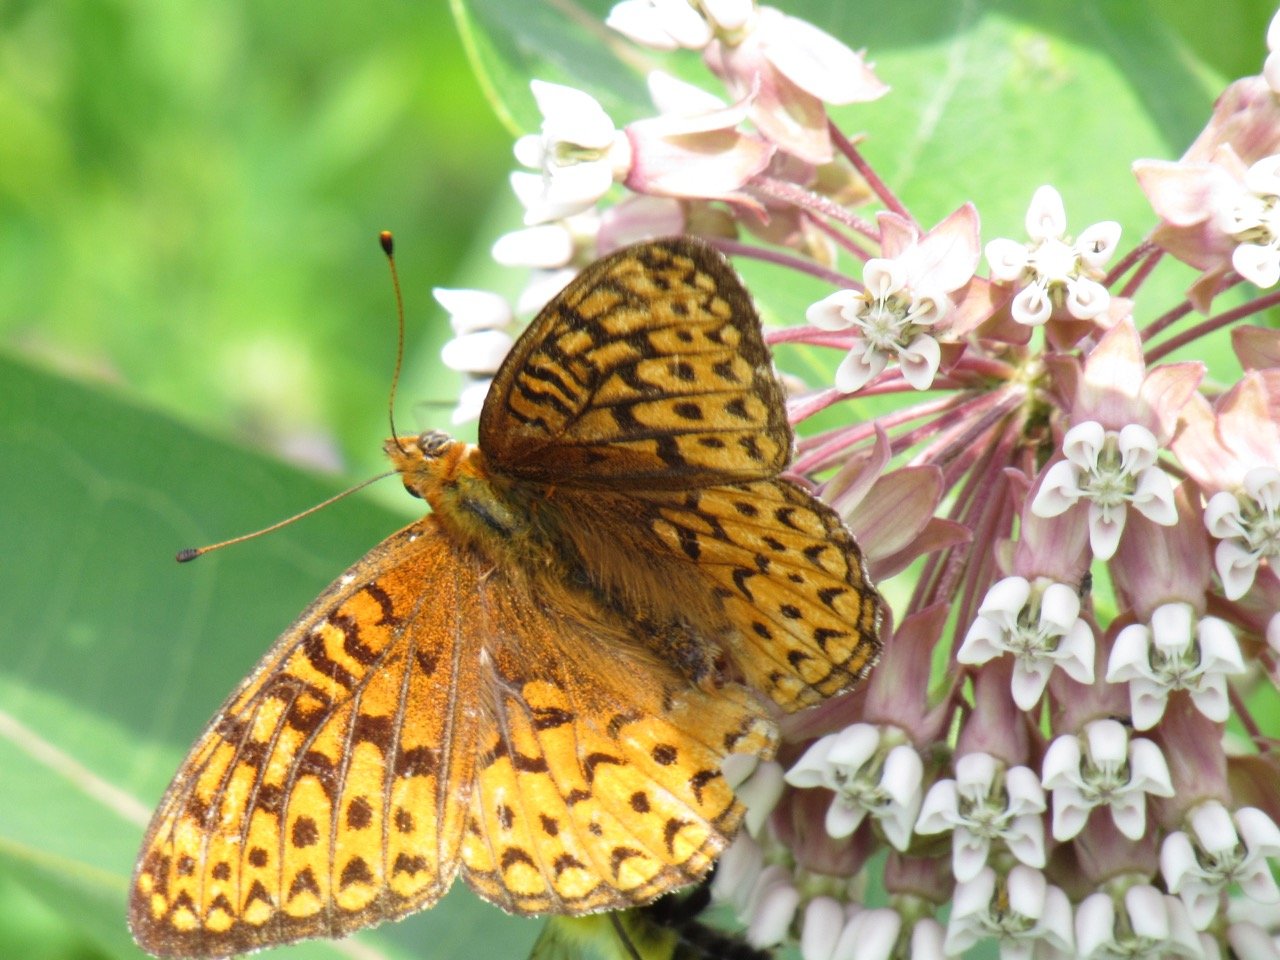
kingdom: Animalia
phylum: Arthropoda
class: Insecta
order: Lepidoptera
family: Nymphalidae
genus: Speyeria
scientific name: Speyeria atlantis
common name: Atlantis Fritillary
